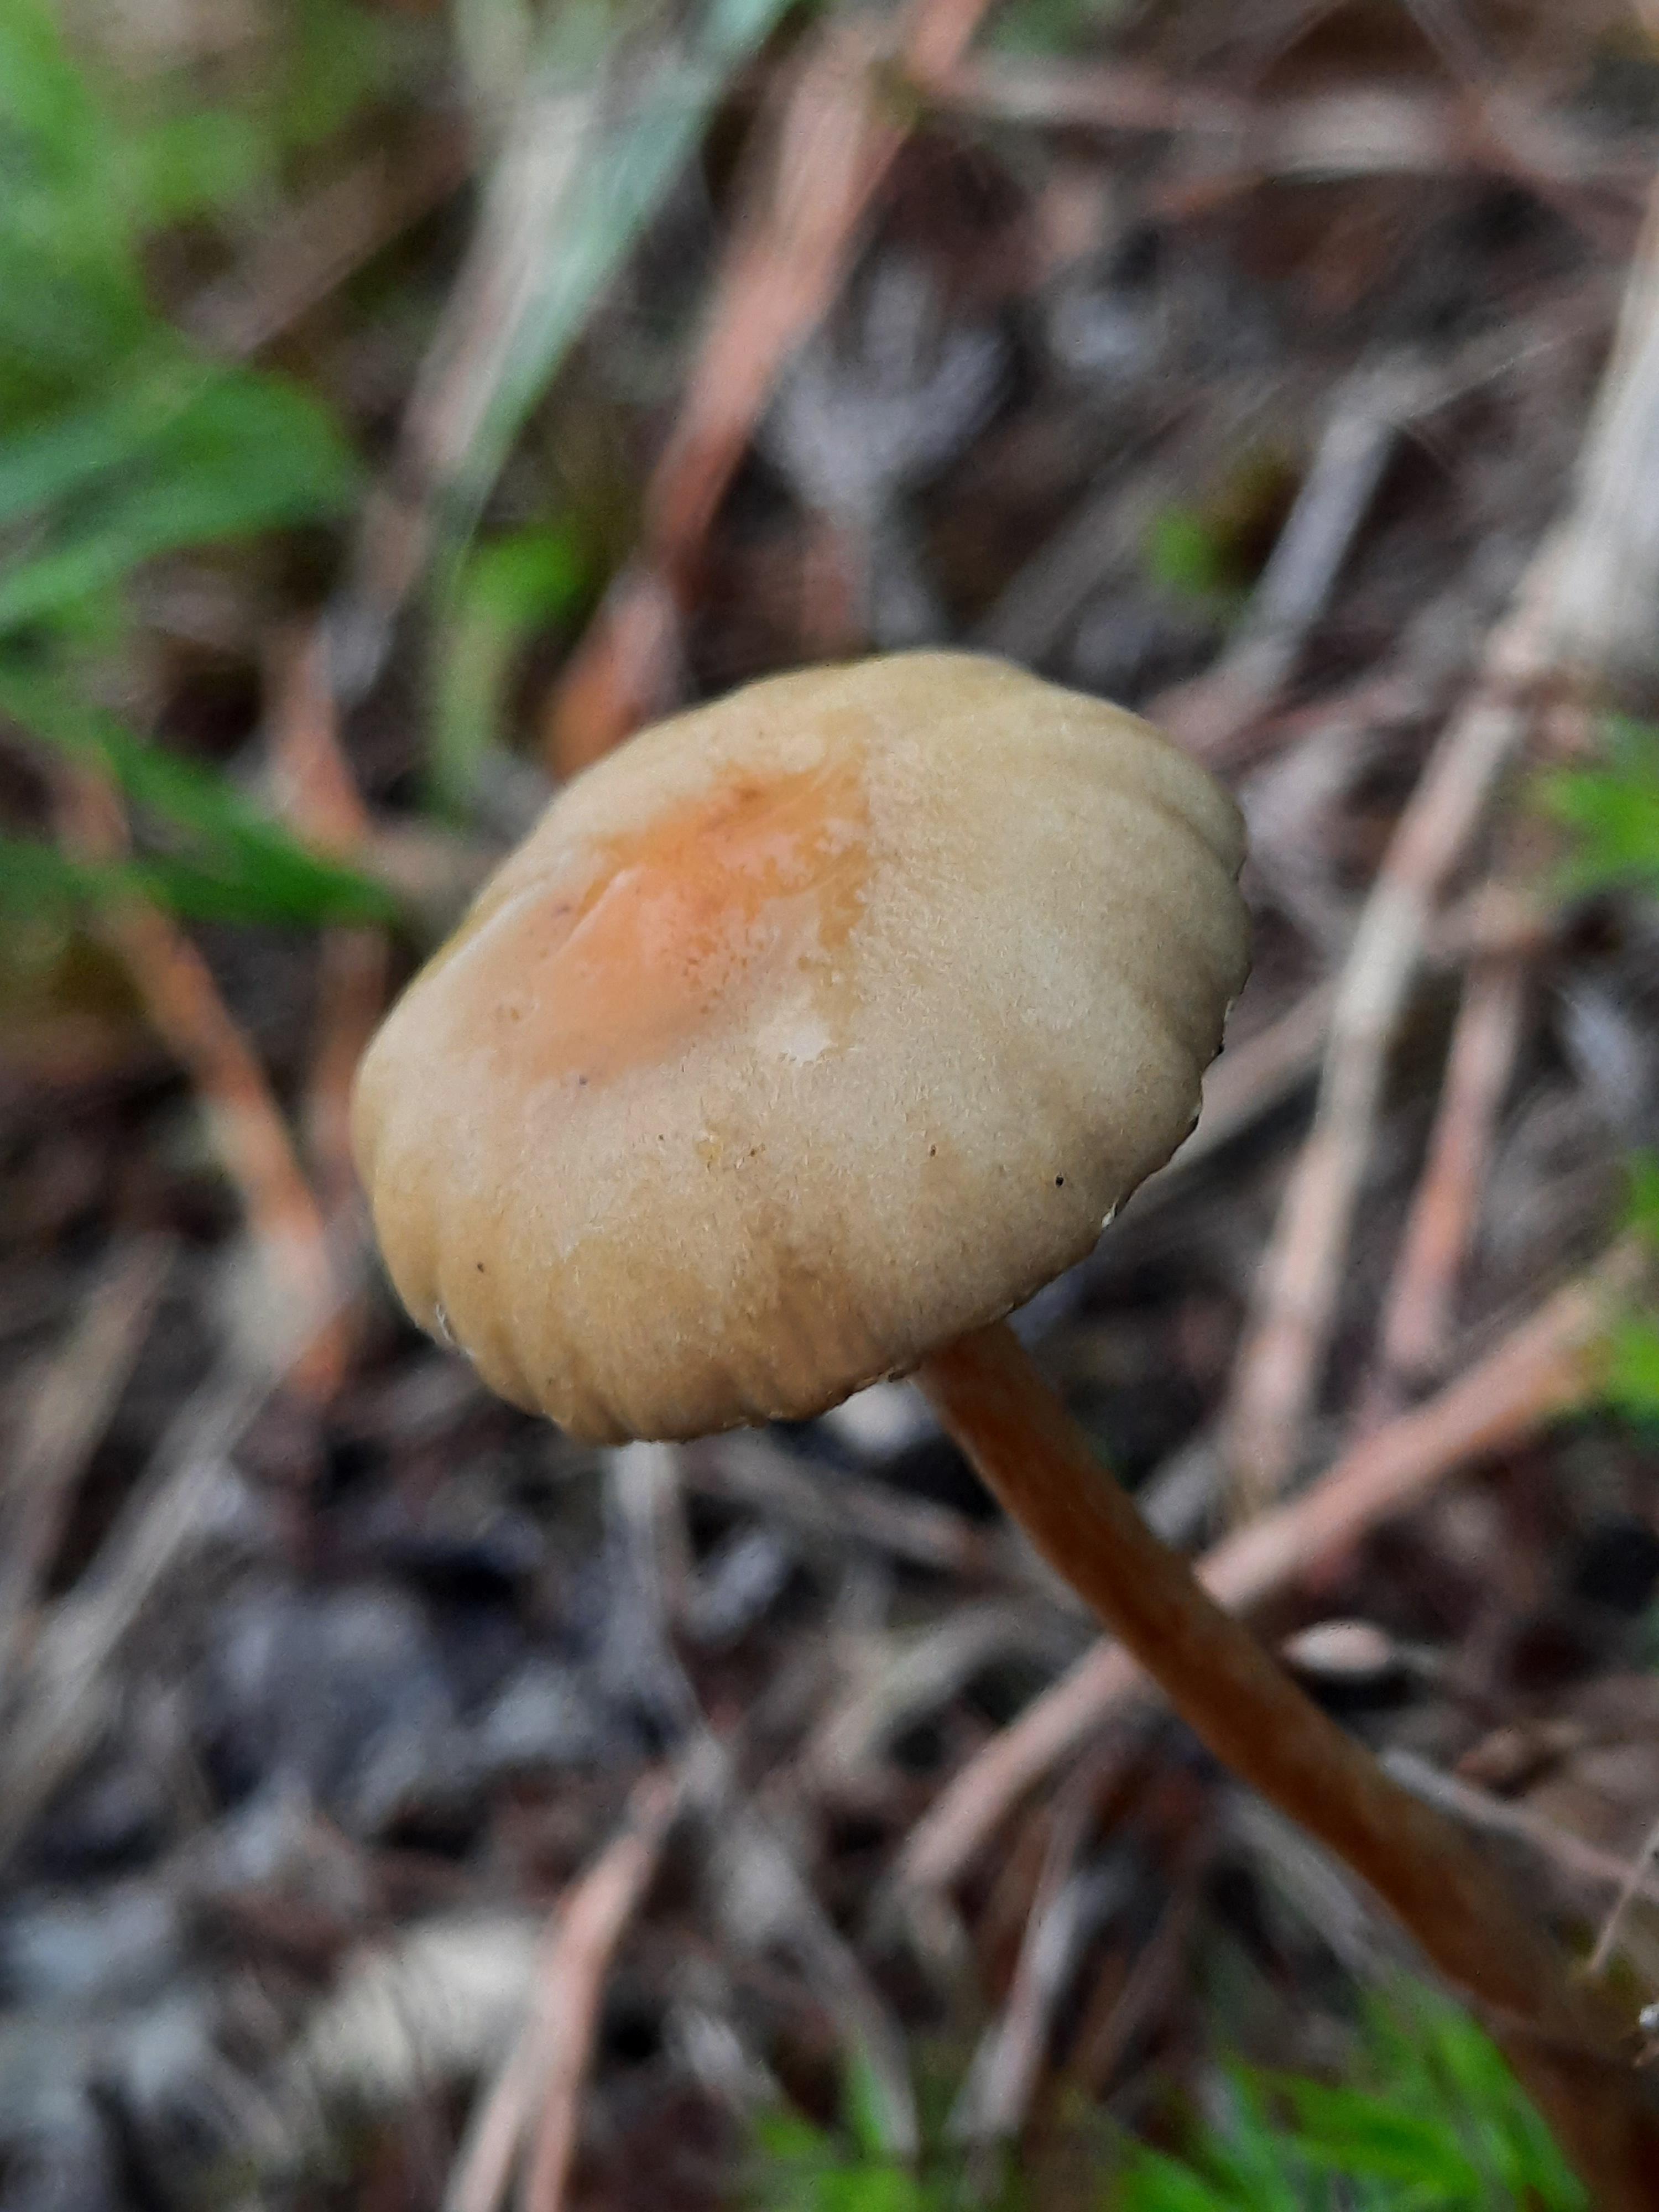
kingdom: Fungi
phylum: Basidiomycota
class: Agaricomycetes
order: Agaricales
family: Strophariaceae
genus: Hypholoma
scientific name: Hypholoma
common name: svovlhat
